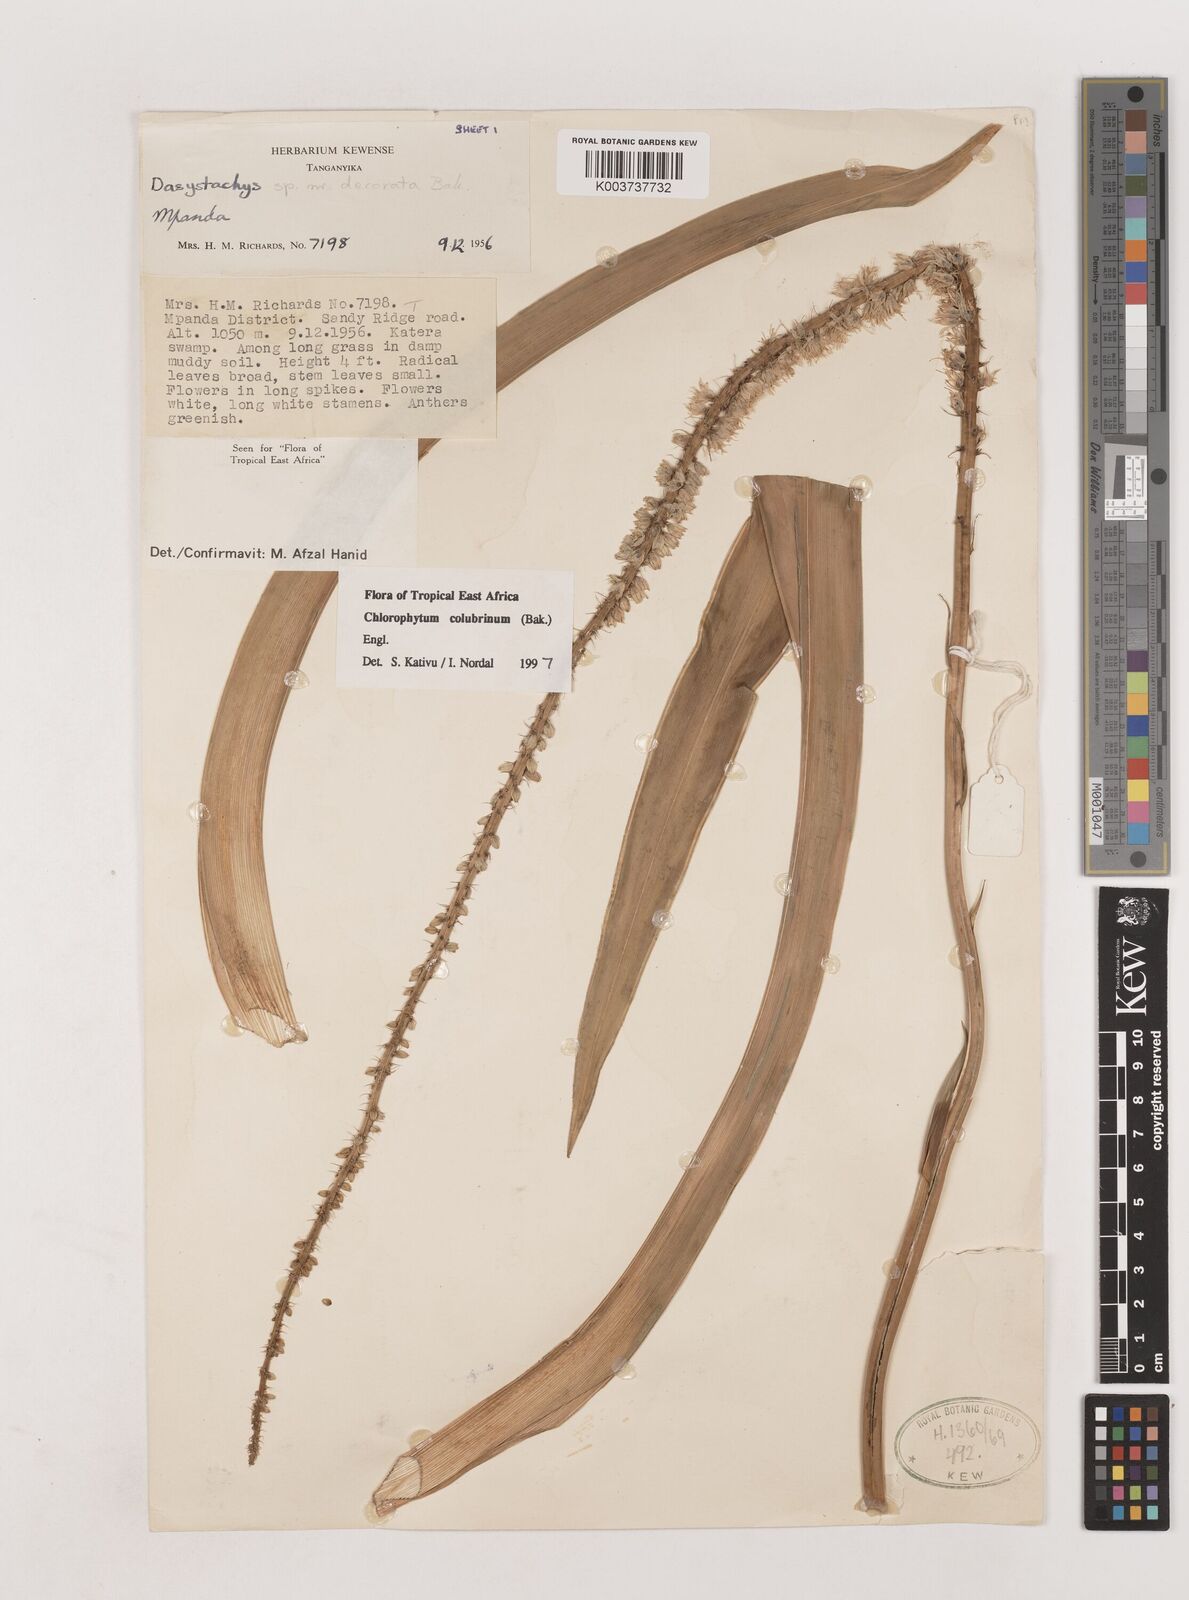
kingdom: Plantae
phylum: Tracheophyta
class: Liliopsida
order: Asparagales
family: Asparagaceae
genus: Chlorophytum
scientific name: Chlorophytum colubrinum
